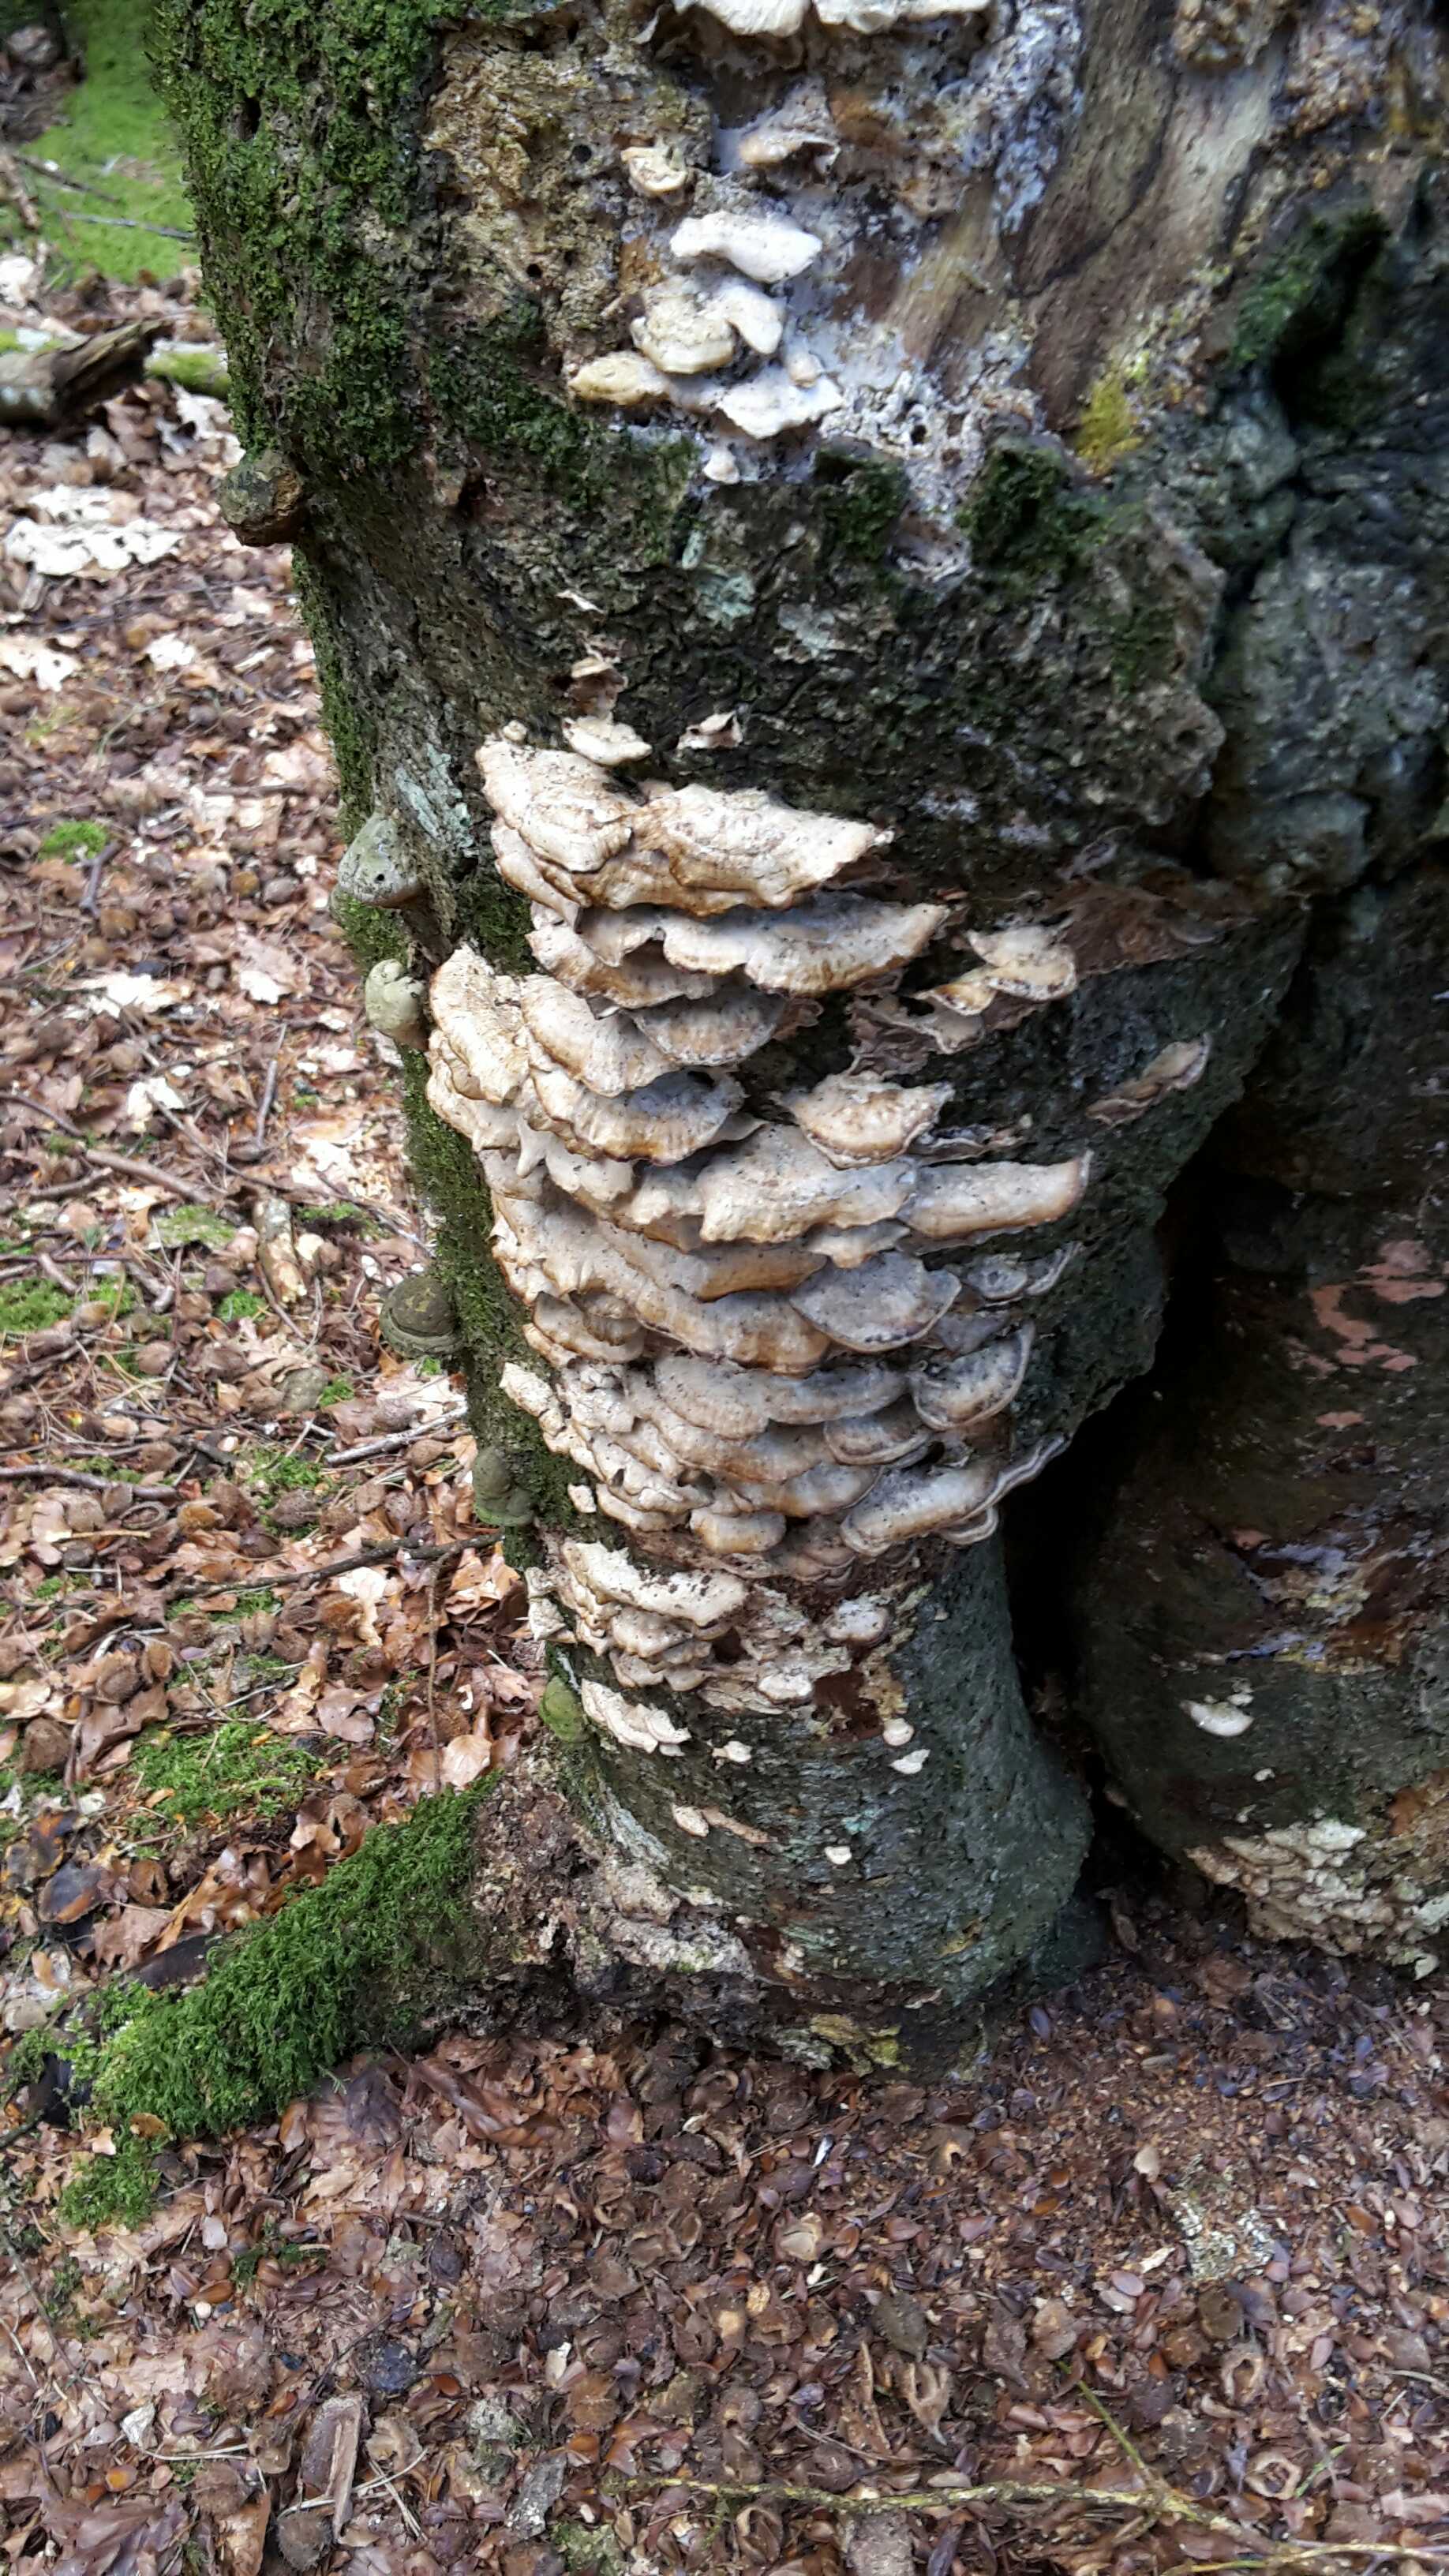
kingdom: Fungi
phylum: Basidiomycota
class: Agaricomycetes
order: Polyporales
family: Phanerochaetaceae
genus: Bjerkandera
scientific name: Bjerkandera adusta
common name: sveden sodporesvamp
